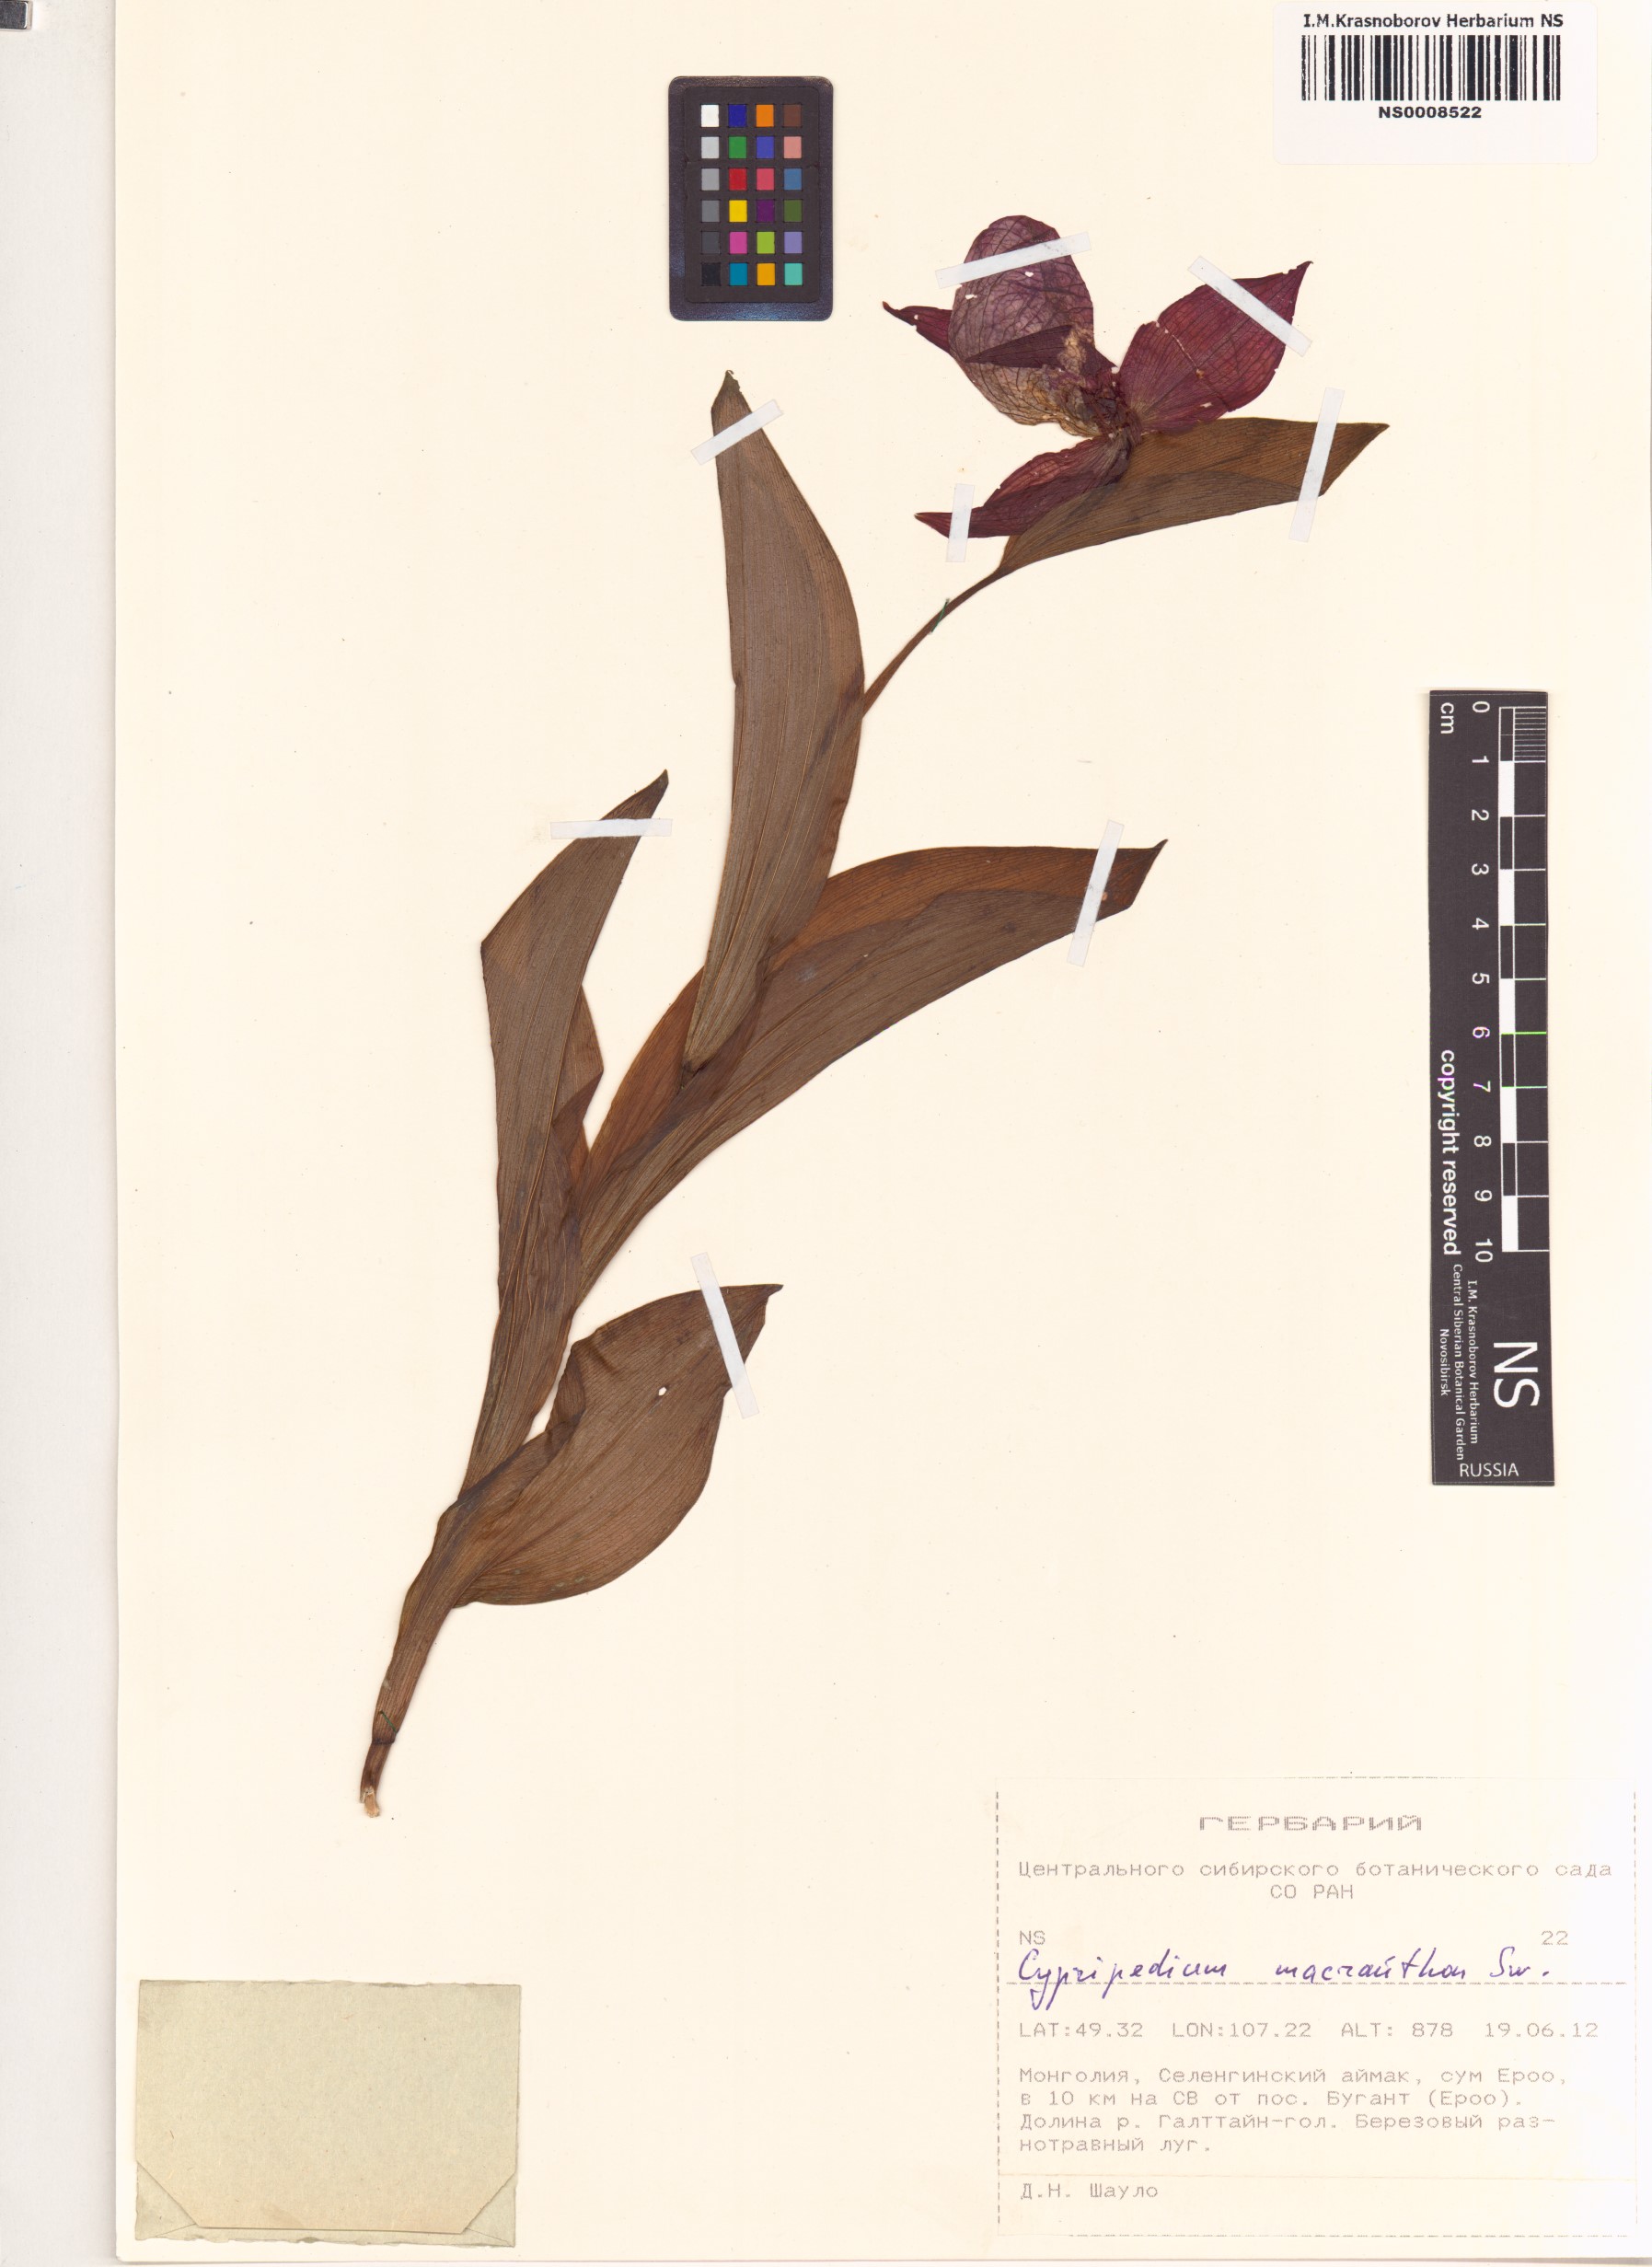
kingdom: Plantae
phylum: Tracheophyta
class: Liliopsida
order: Asparagales
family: Orchidaceae
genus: Cypripedium
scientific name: Cypripedium macranthos
